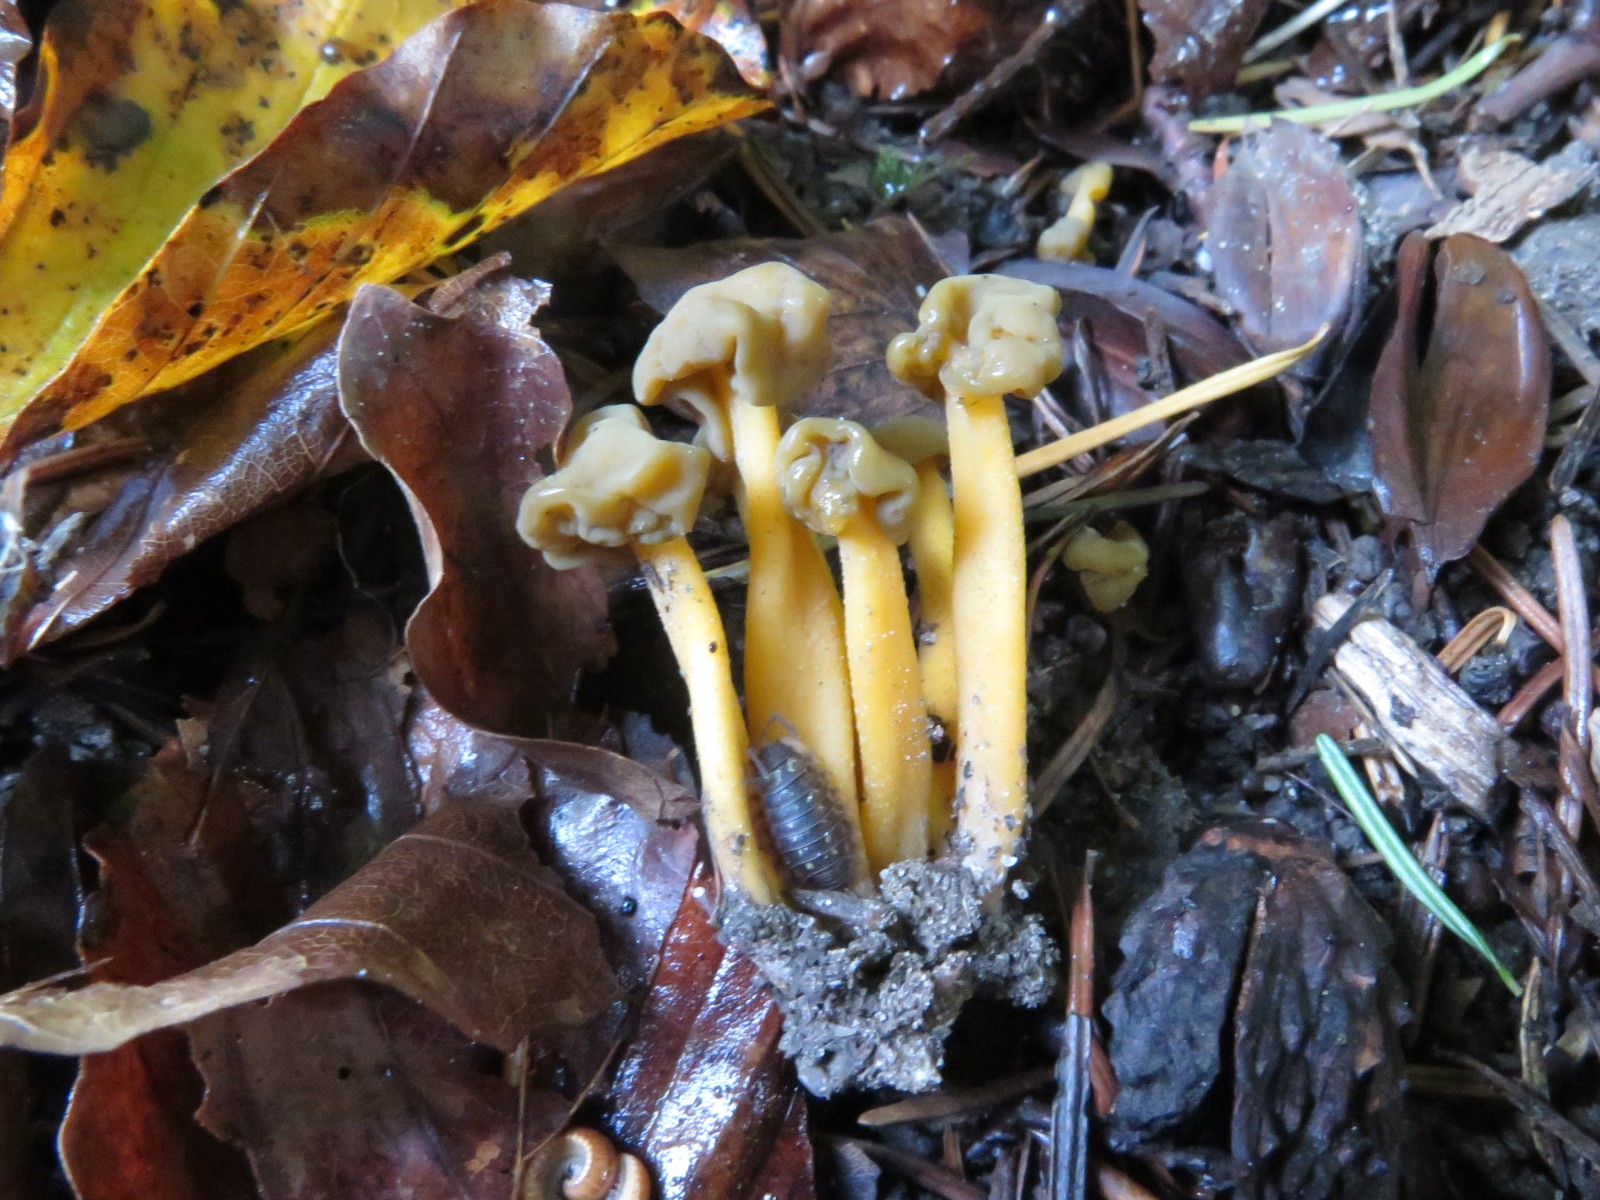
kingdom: Fungi
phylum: Ascomycota
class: Leotiomycetes
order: Leotiales
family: Leotiaceae
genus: Leotia
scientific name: Leotia lubrica
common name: ravsvamp
